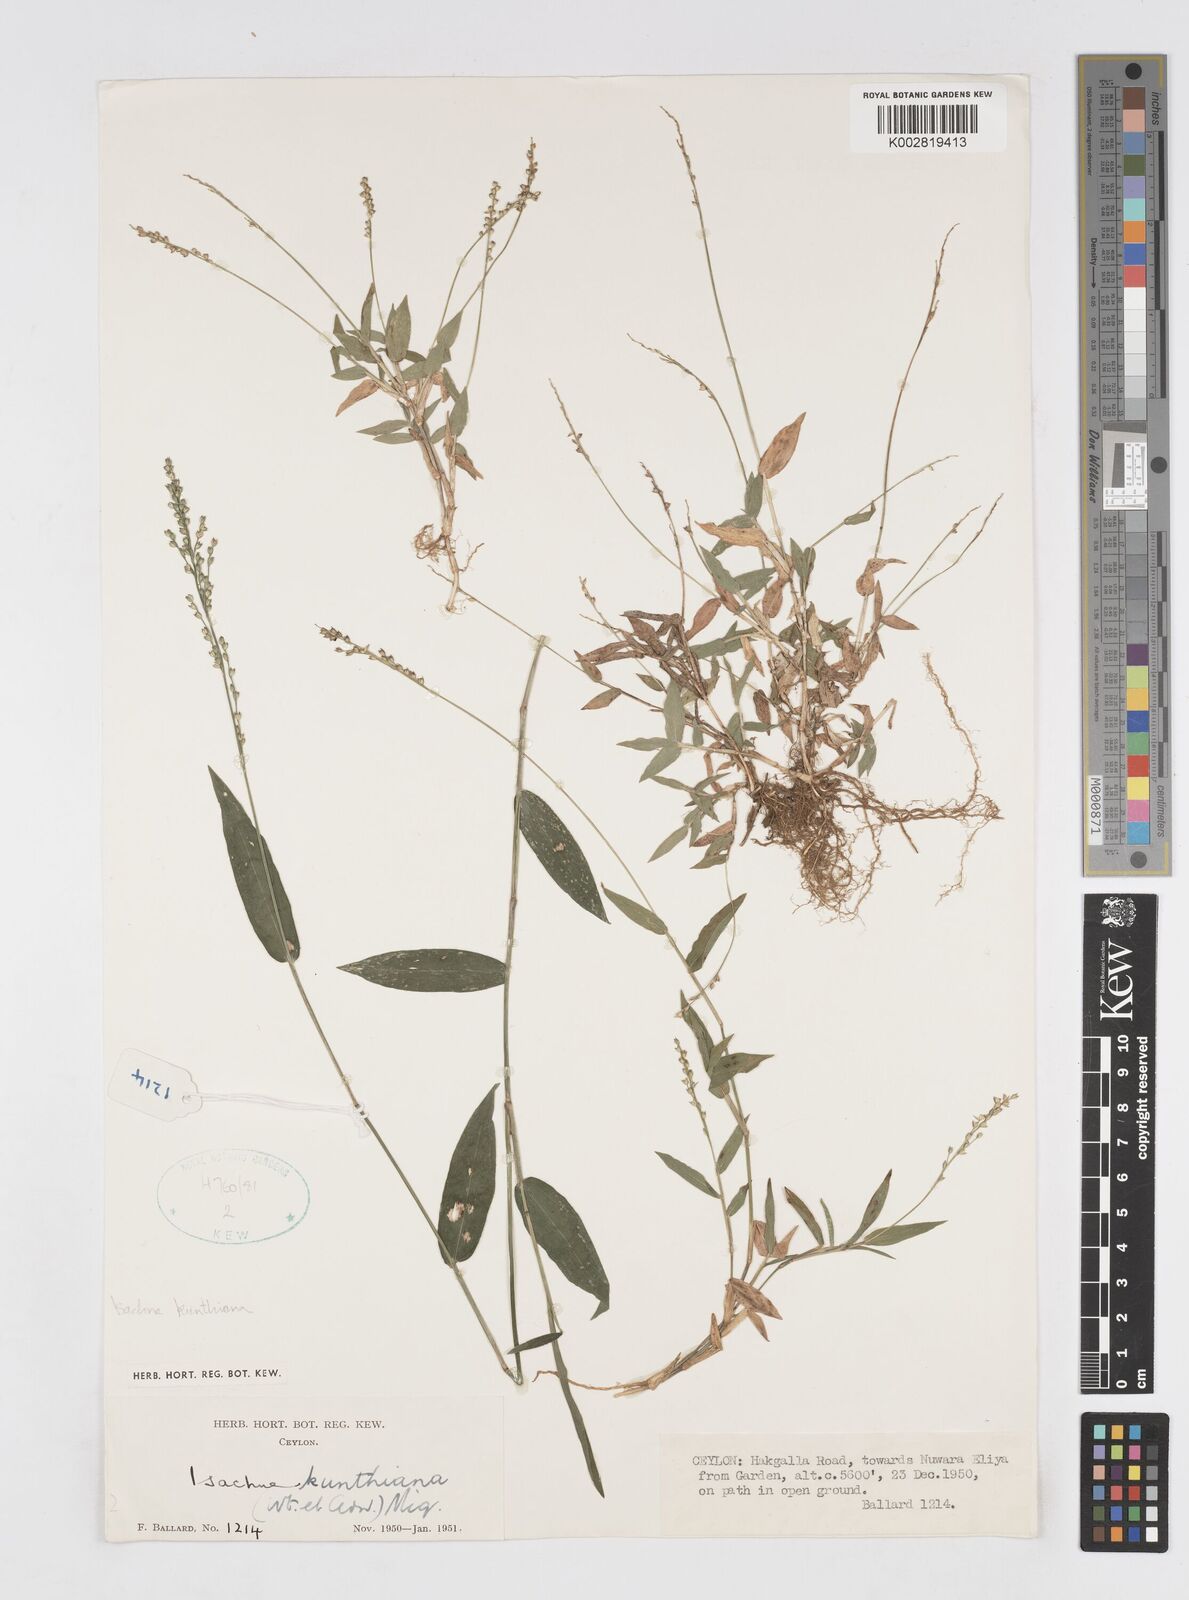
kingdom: Plantae
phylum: Tracheophyta
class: Liliopsida
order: Poales
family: Poaceae
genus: Isachne
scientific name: Isachne kunthiana
